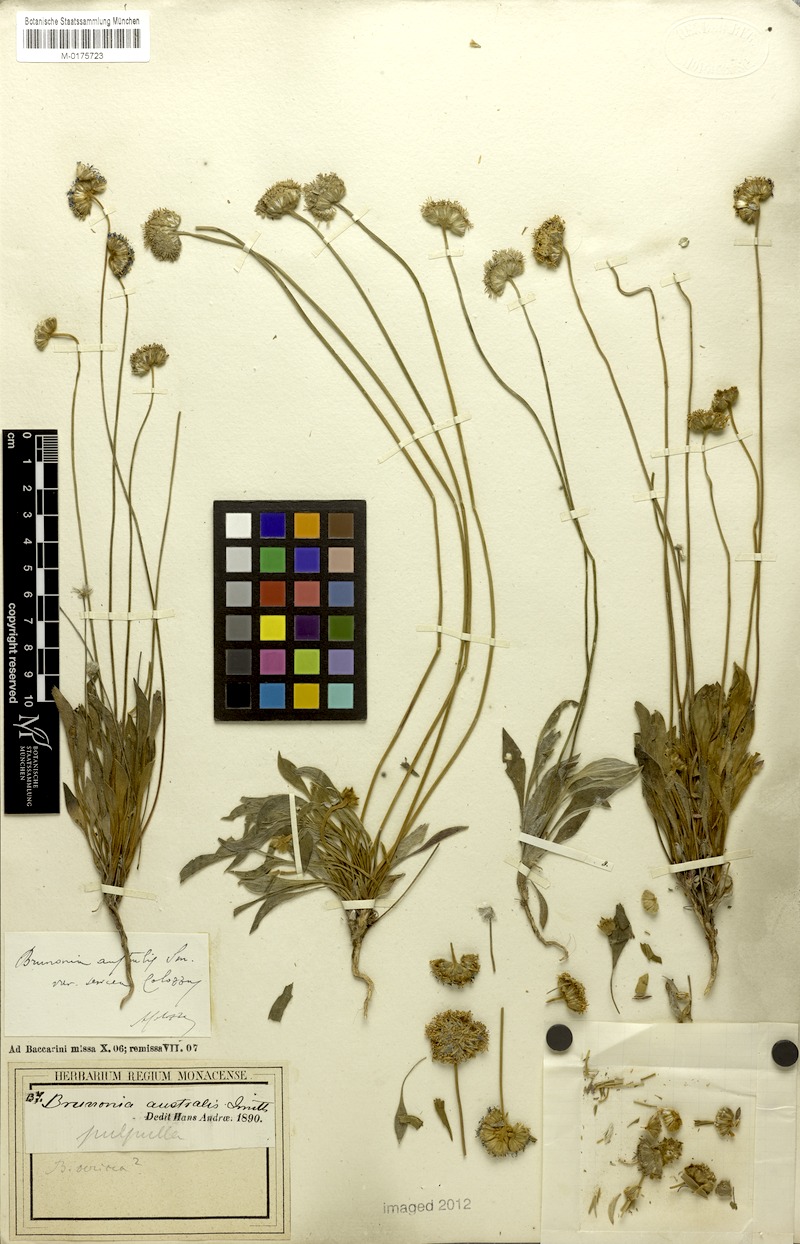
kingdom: Plantae
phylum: Tracheophyta
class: Magnoliopsida
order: Asterales
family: Goodeniaceae
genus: Brunonia
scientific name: Brunonia australis
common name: Blue pincushion
